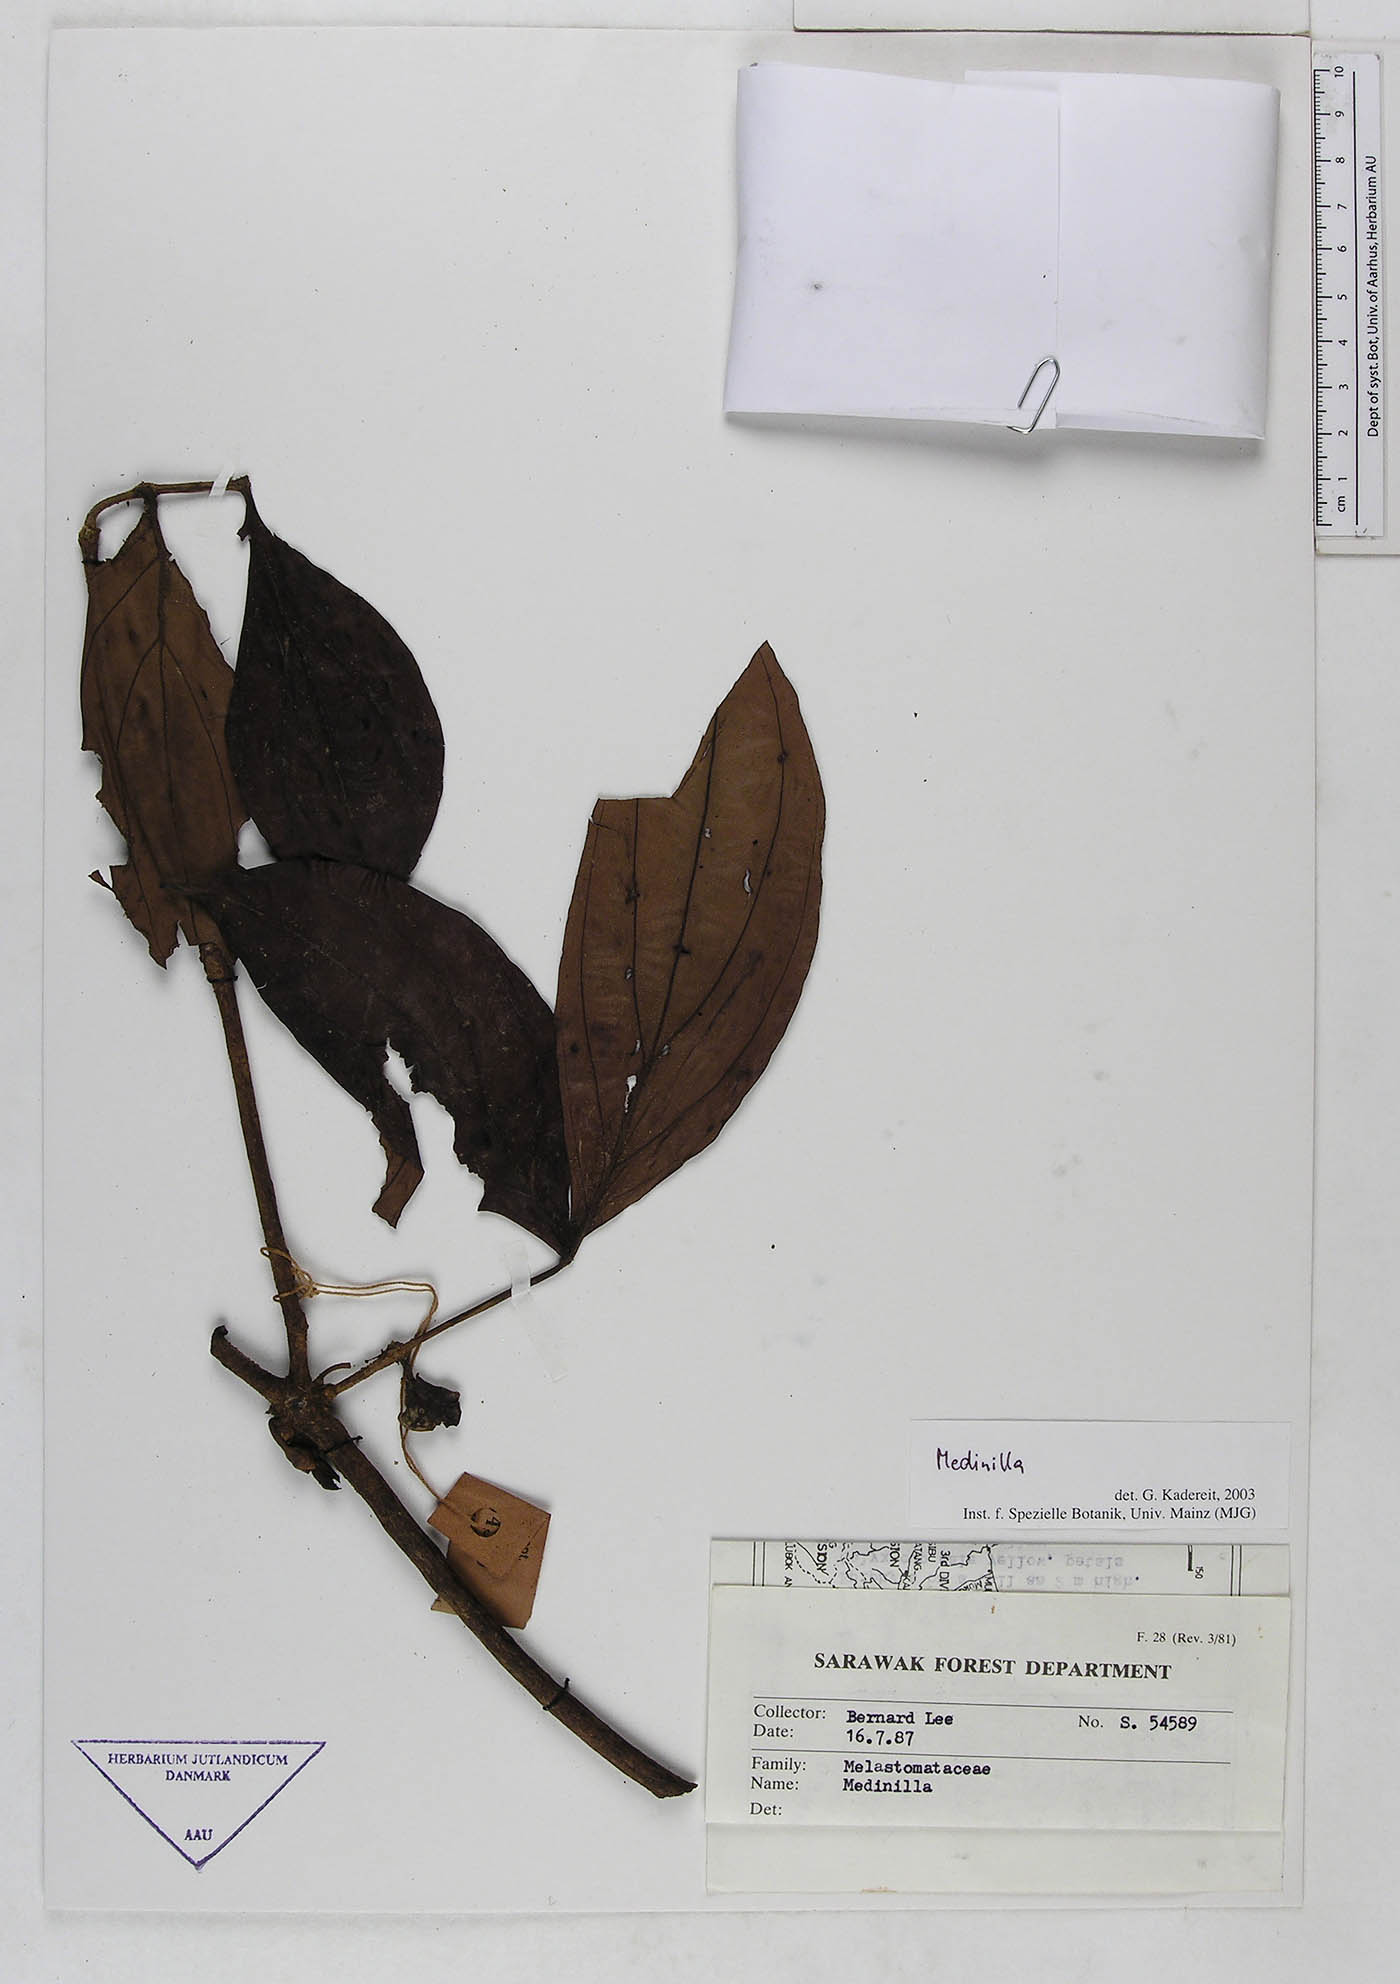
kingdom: Plantae
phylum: Tracheophyta
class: Magnoliopsida
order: Myrtales
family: Melastomataceae
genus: Medinilla
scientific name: Medinilla
